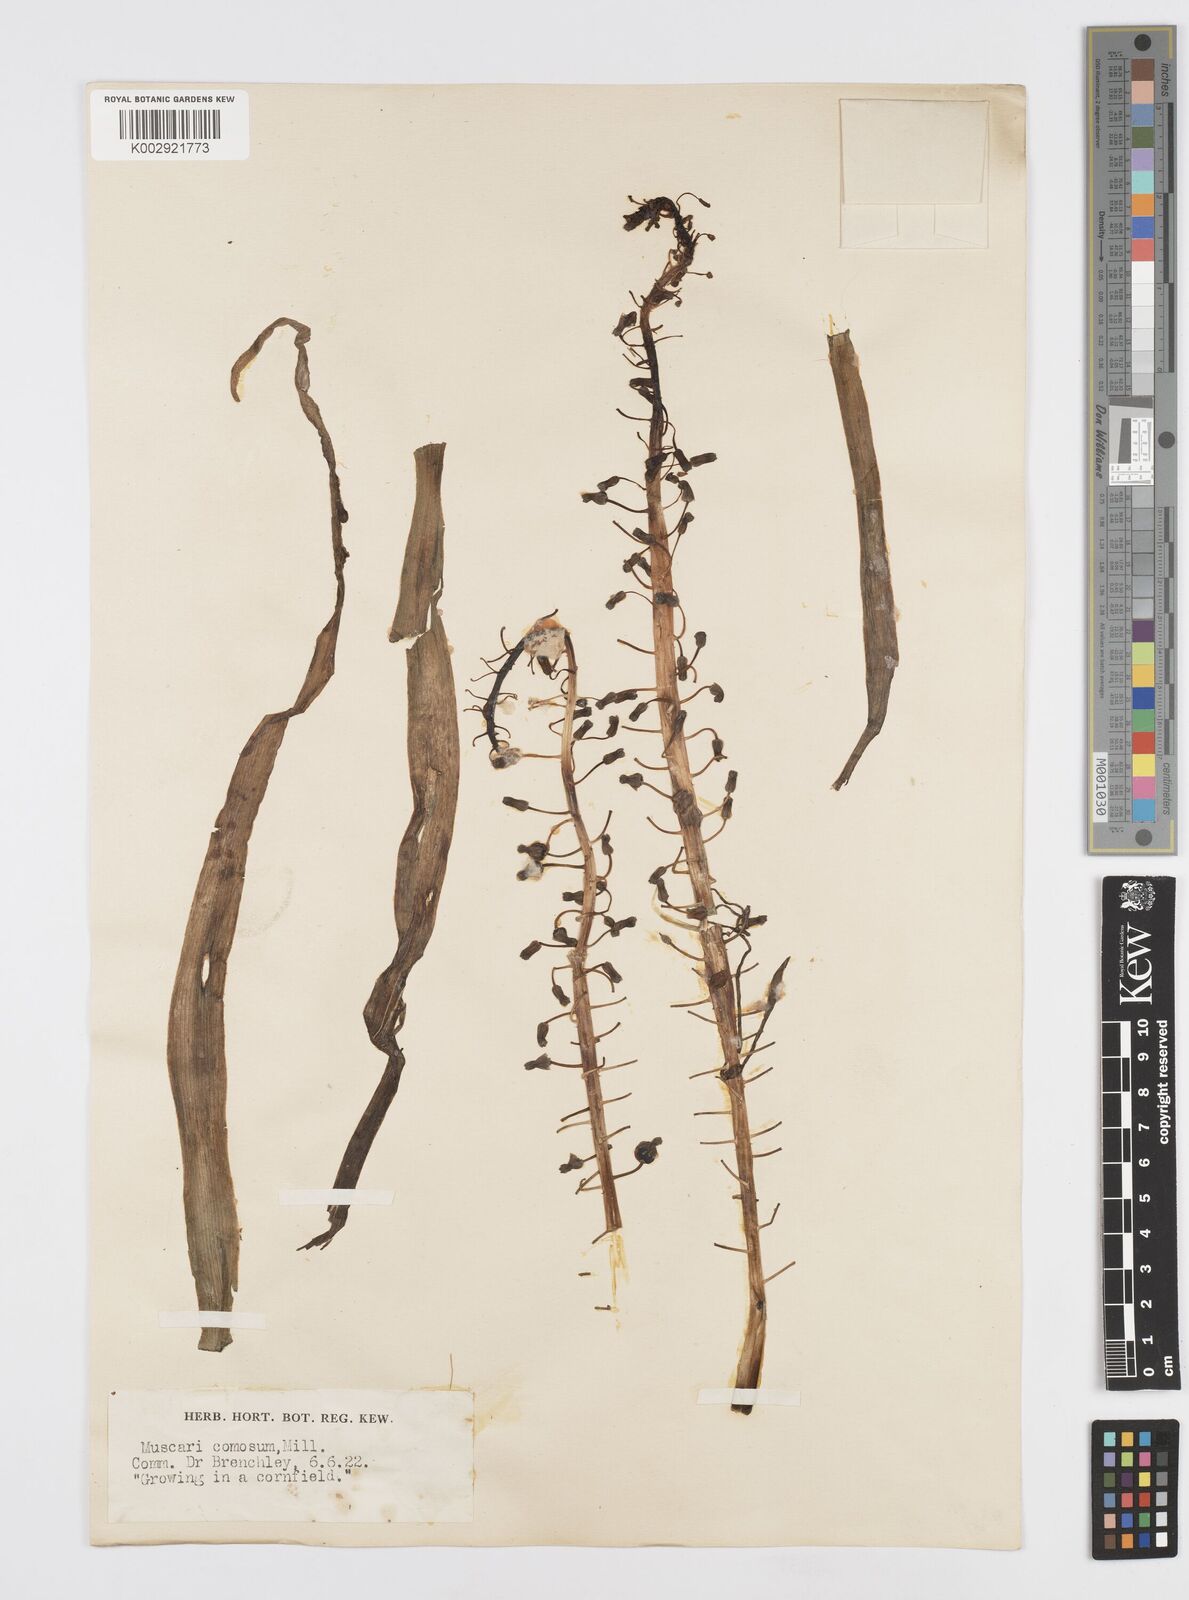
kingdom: Plantae
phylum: Tracheophyta
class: Liliopsida
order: Asparagales
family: Asparagaceae
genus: Muscari
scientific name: Muscari comosum
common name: Tassel hyacinth
